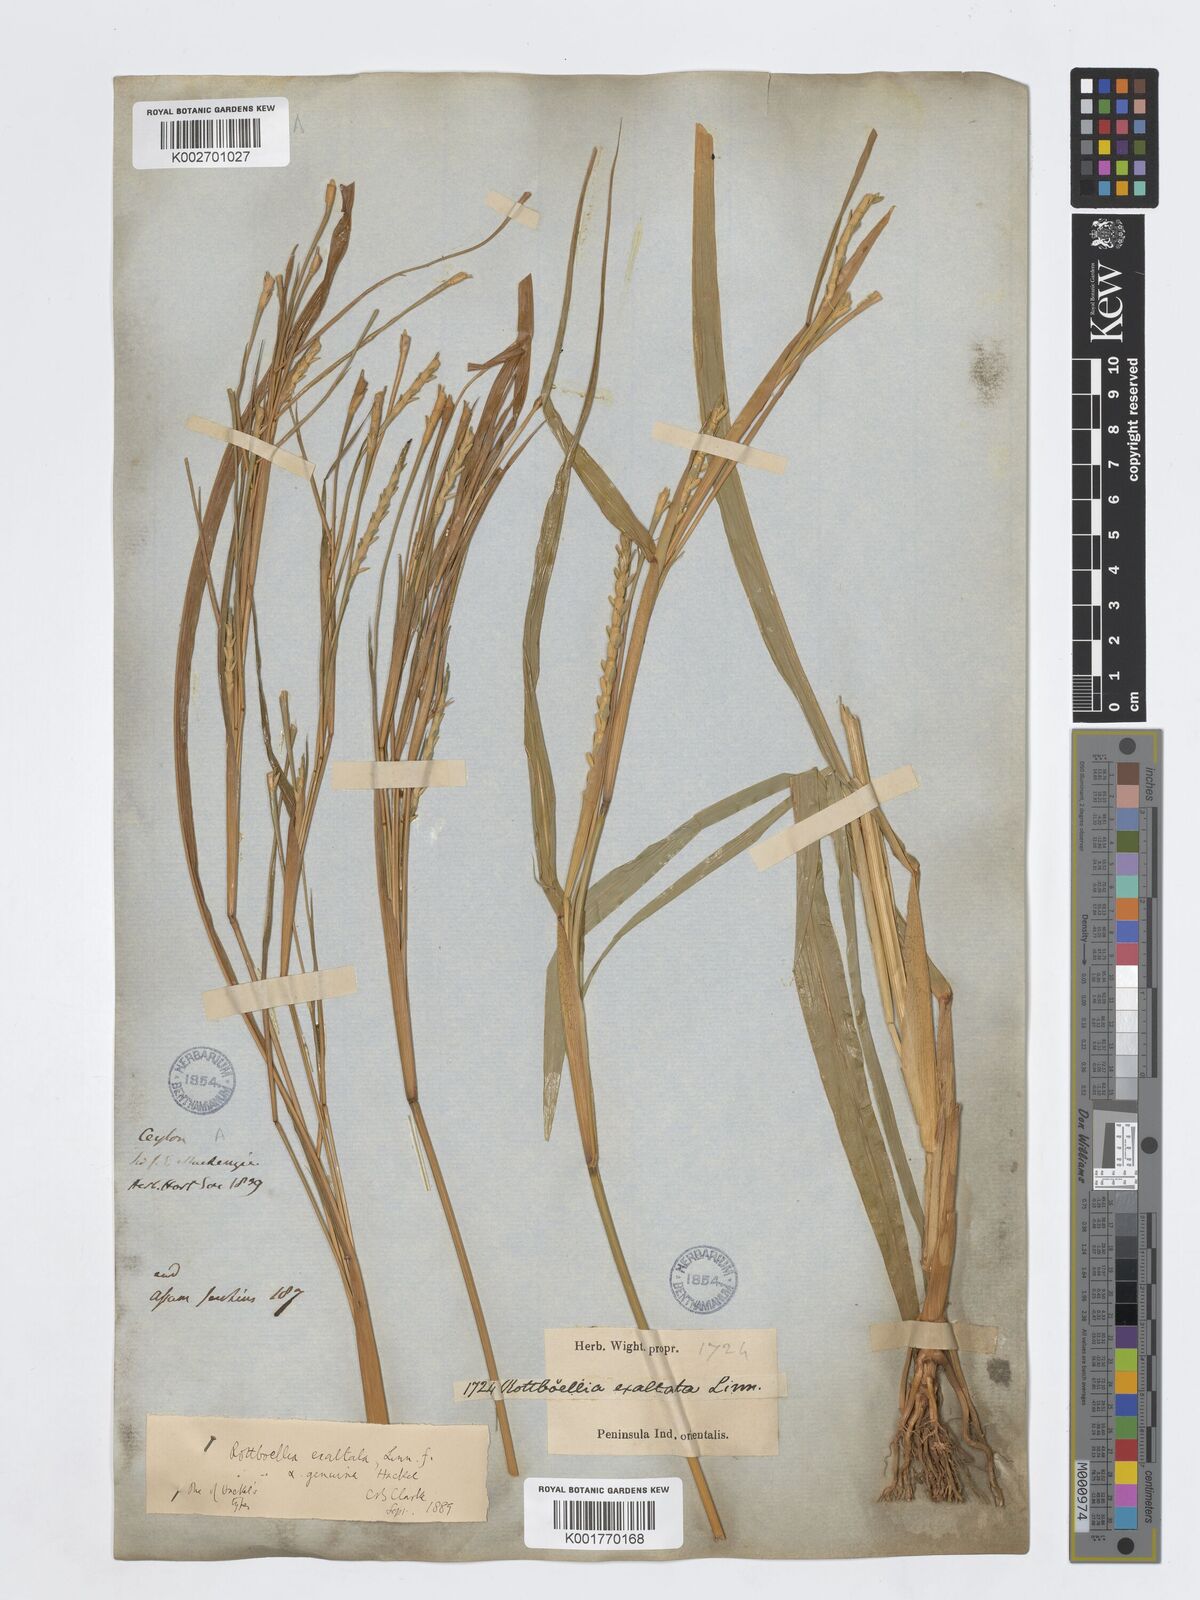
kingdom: Plantae
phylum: Tracheophyta
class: Liliopsida
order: Poales
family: Poaceae
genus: Ophiuros
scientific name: Ophiuros exaltatus
